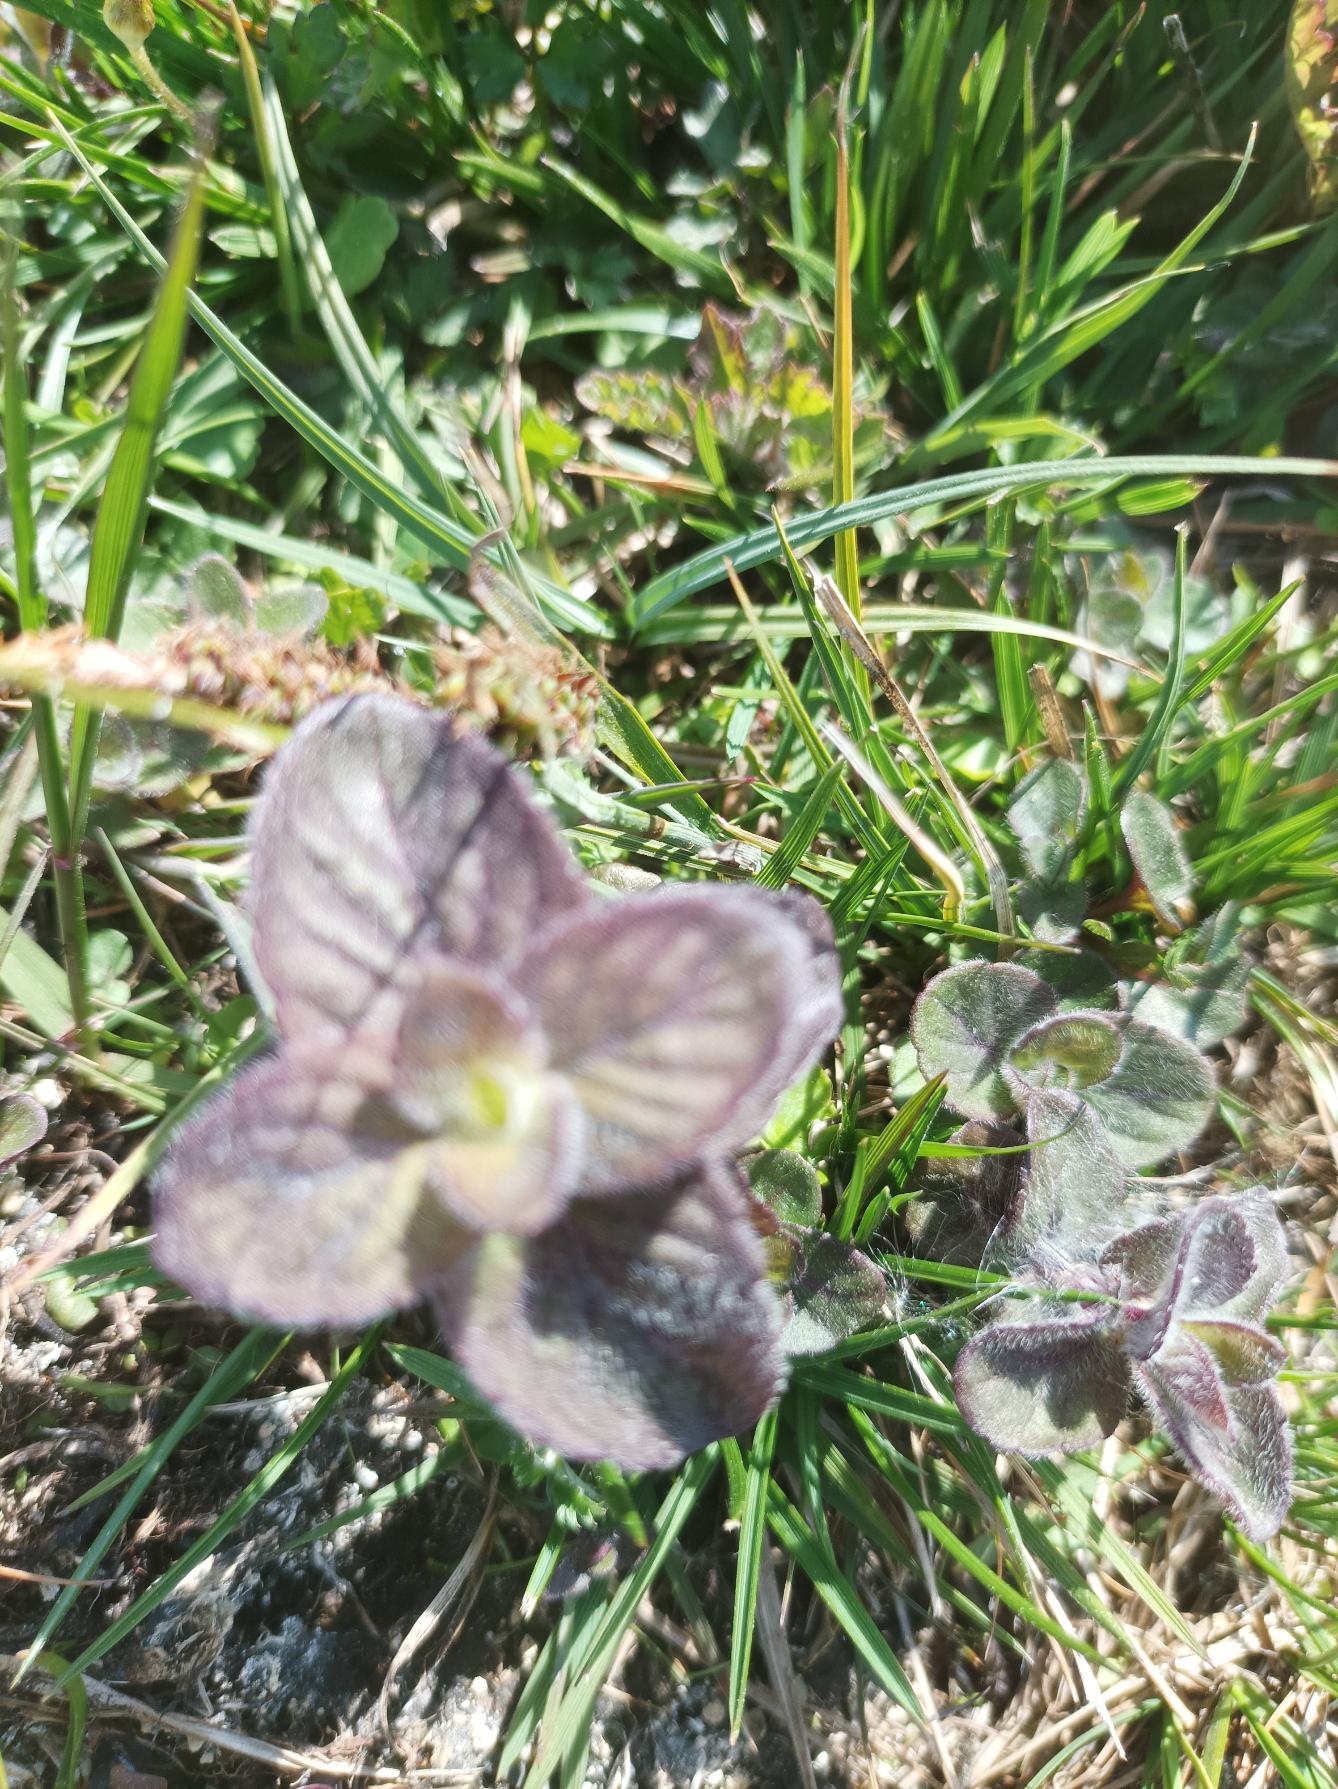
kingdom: Plantae
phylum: Tracheophyta
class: Magnoliopsida
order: Lamiales
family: Lamiaceae
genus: Mentha
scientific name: Mentha aquatica
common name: Vand-mynte
